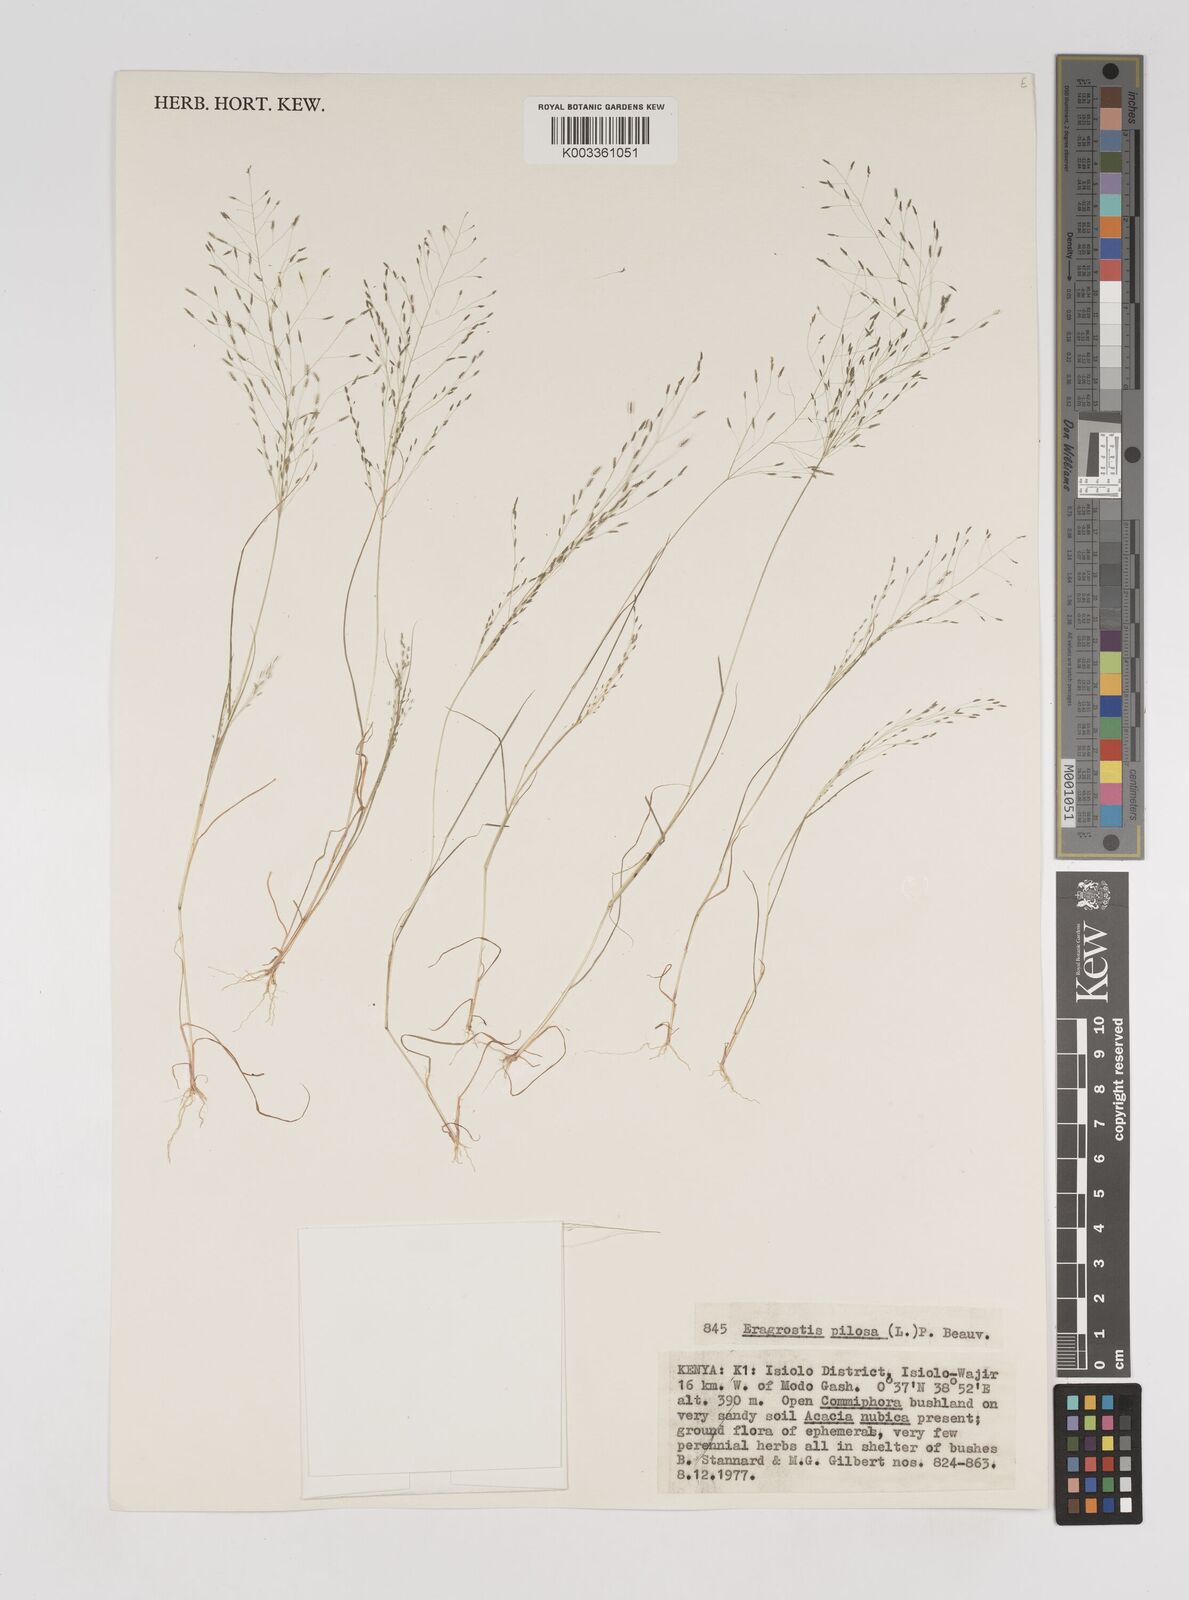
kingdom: Plantae
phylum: Tracheophyta
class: Liliopsida
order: Poales
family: Poaceae
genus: Eragrostis
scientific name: Eragrostis aethiopica
